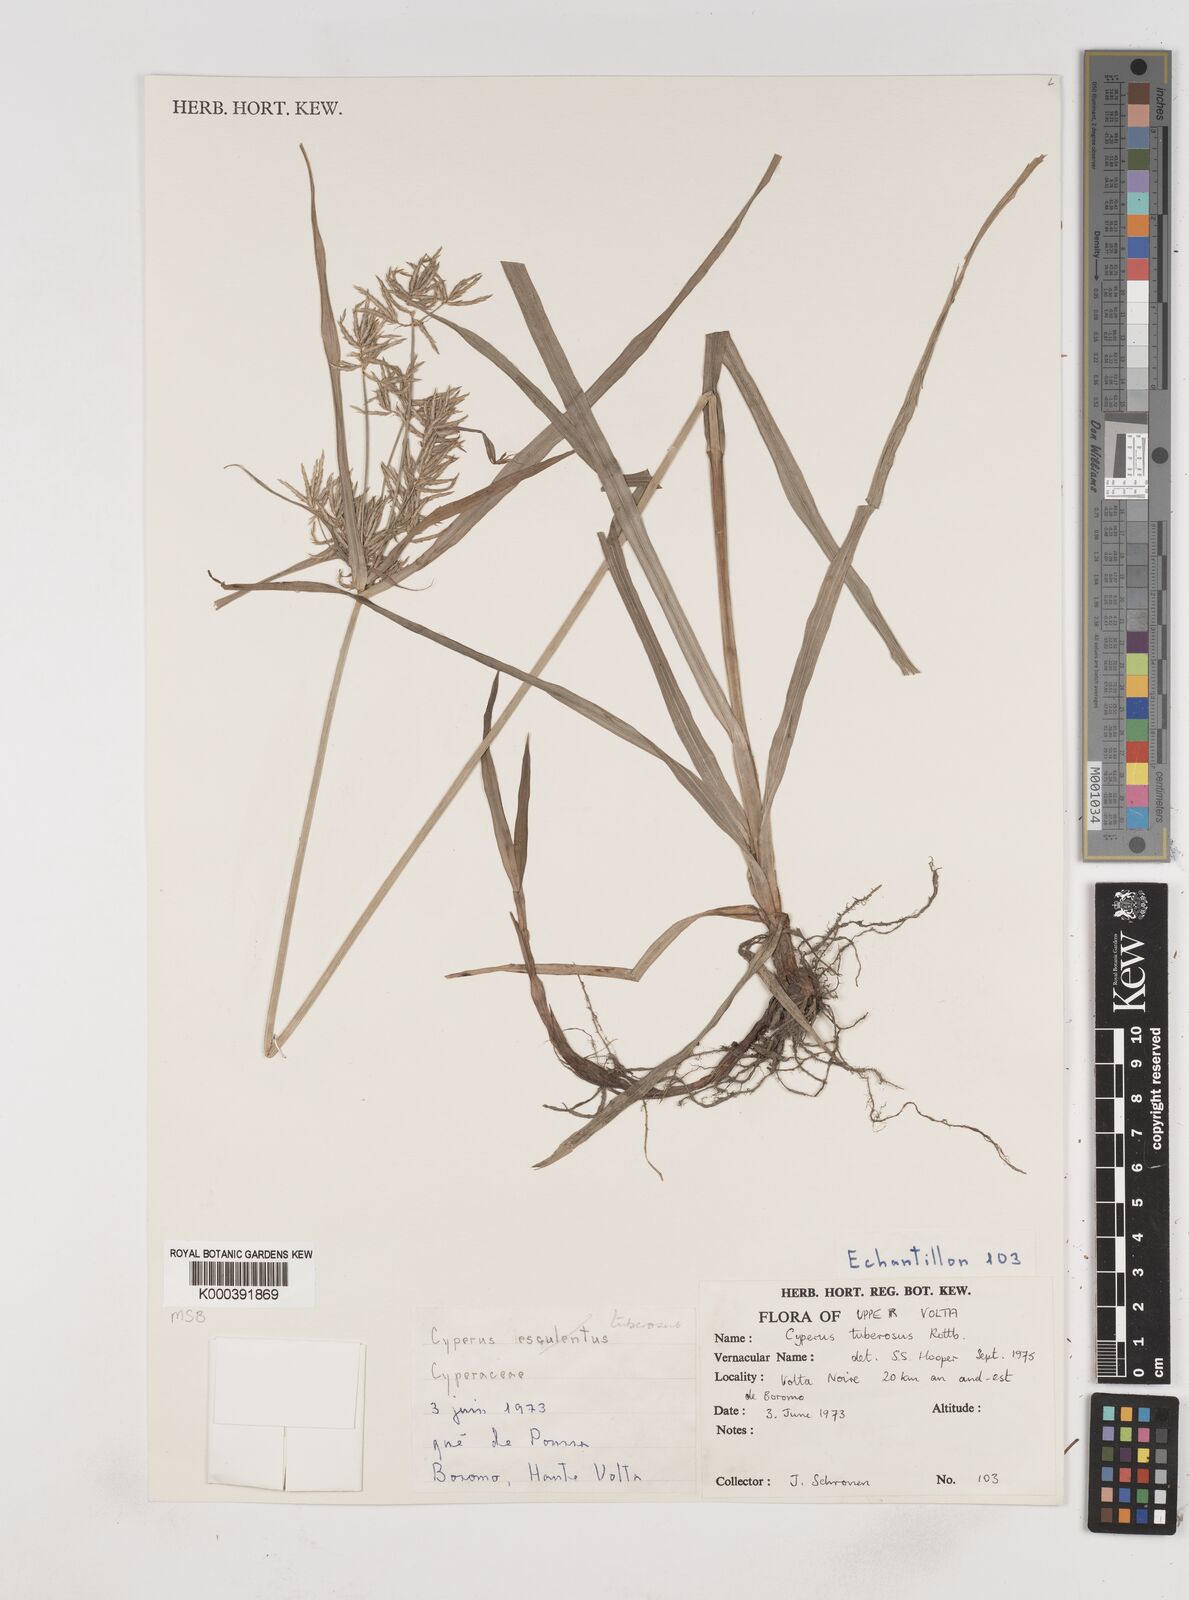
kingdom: Plantae
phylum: Tracheophyta
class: Liliopsida
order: Poales
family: Cyperaceae
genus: Cyperus
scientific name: Cyperus tuberosus
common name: Nut grass
